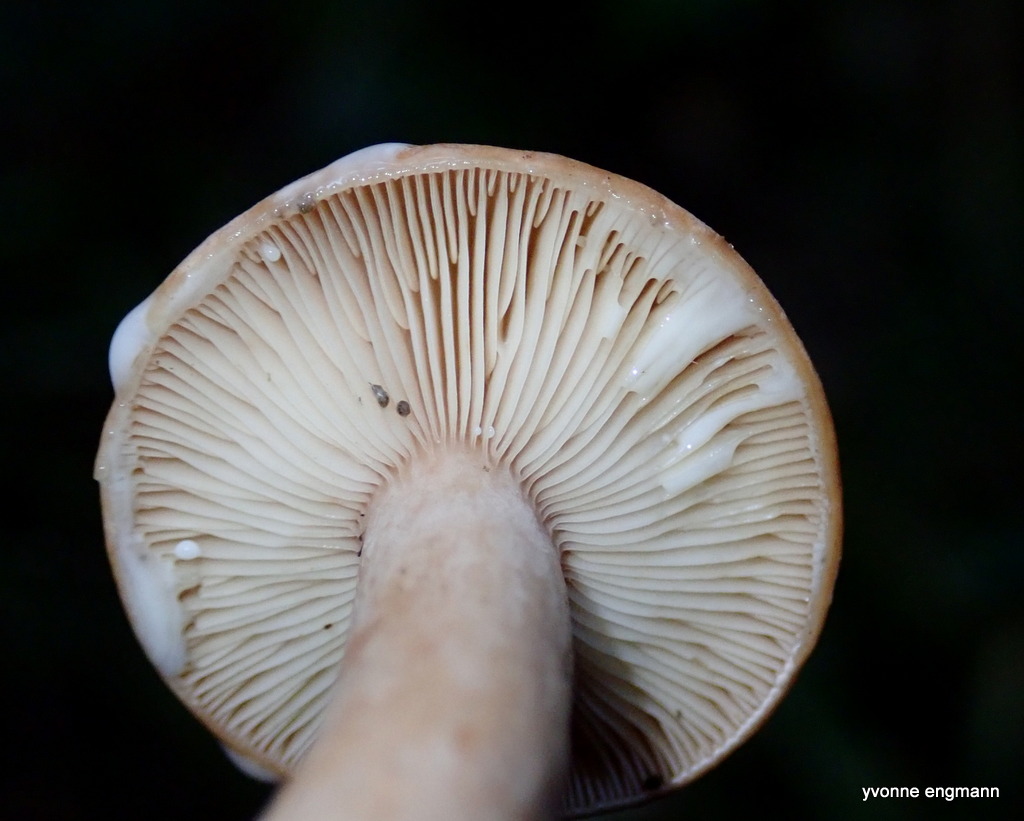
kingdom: Fungi
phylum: Basidiomycota
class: Agaricomycetes
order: Russulales
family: Russulaceae
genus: Lactarius
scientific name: Lactarius quietus
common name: ege-mælkehat
